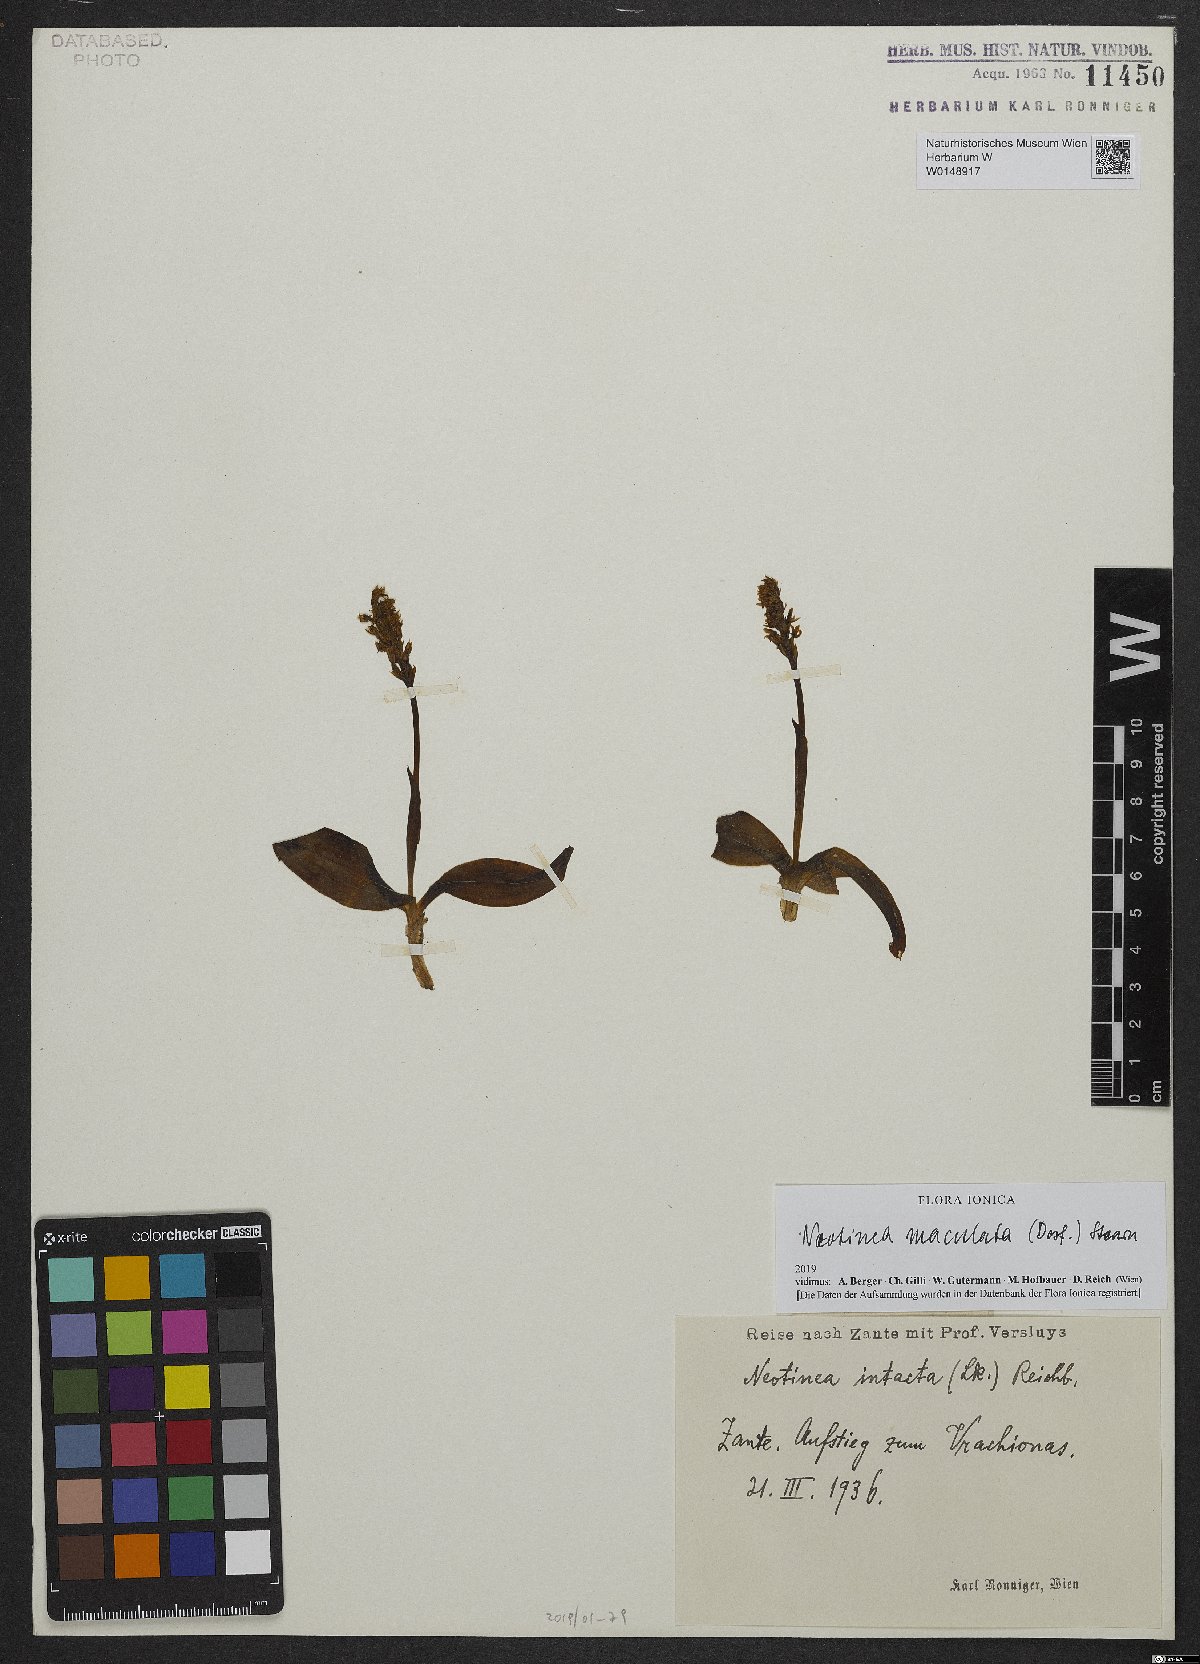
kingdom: Plantae
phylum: Tracheophyta
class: Liliopsida
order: Asparagales
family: Orchidaceae
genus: Neotinea
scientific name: Neotinea maculata
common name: Dense-flowered orchid
